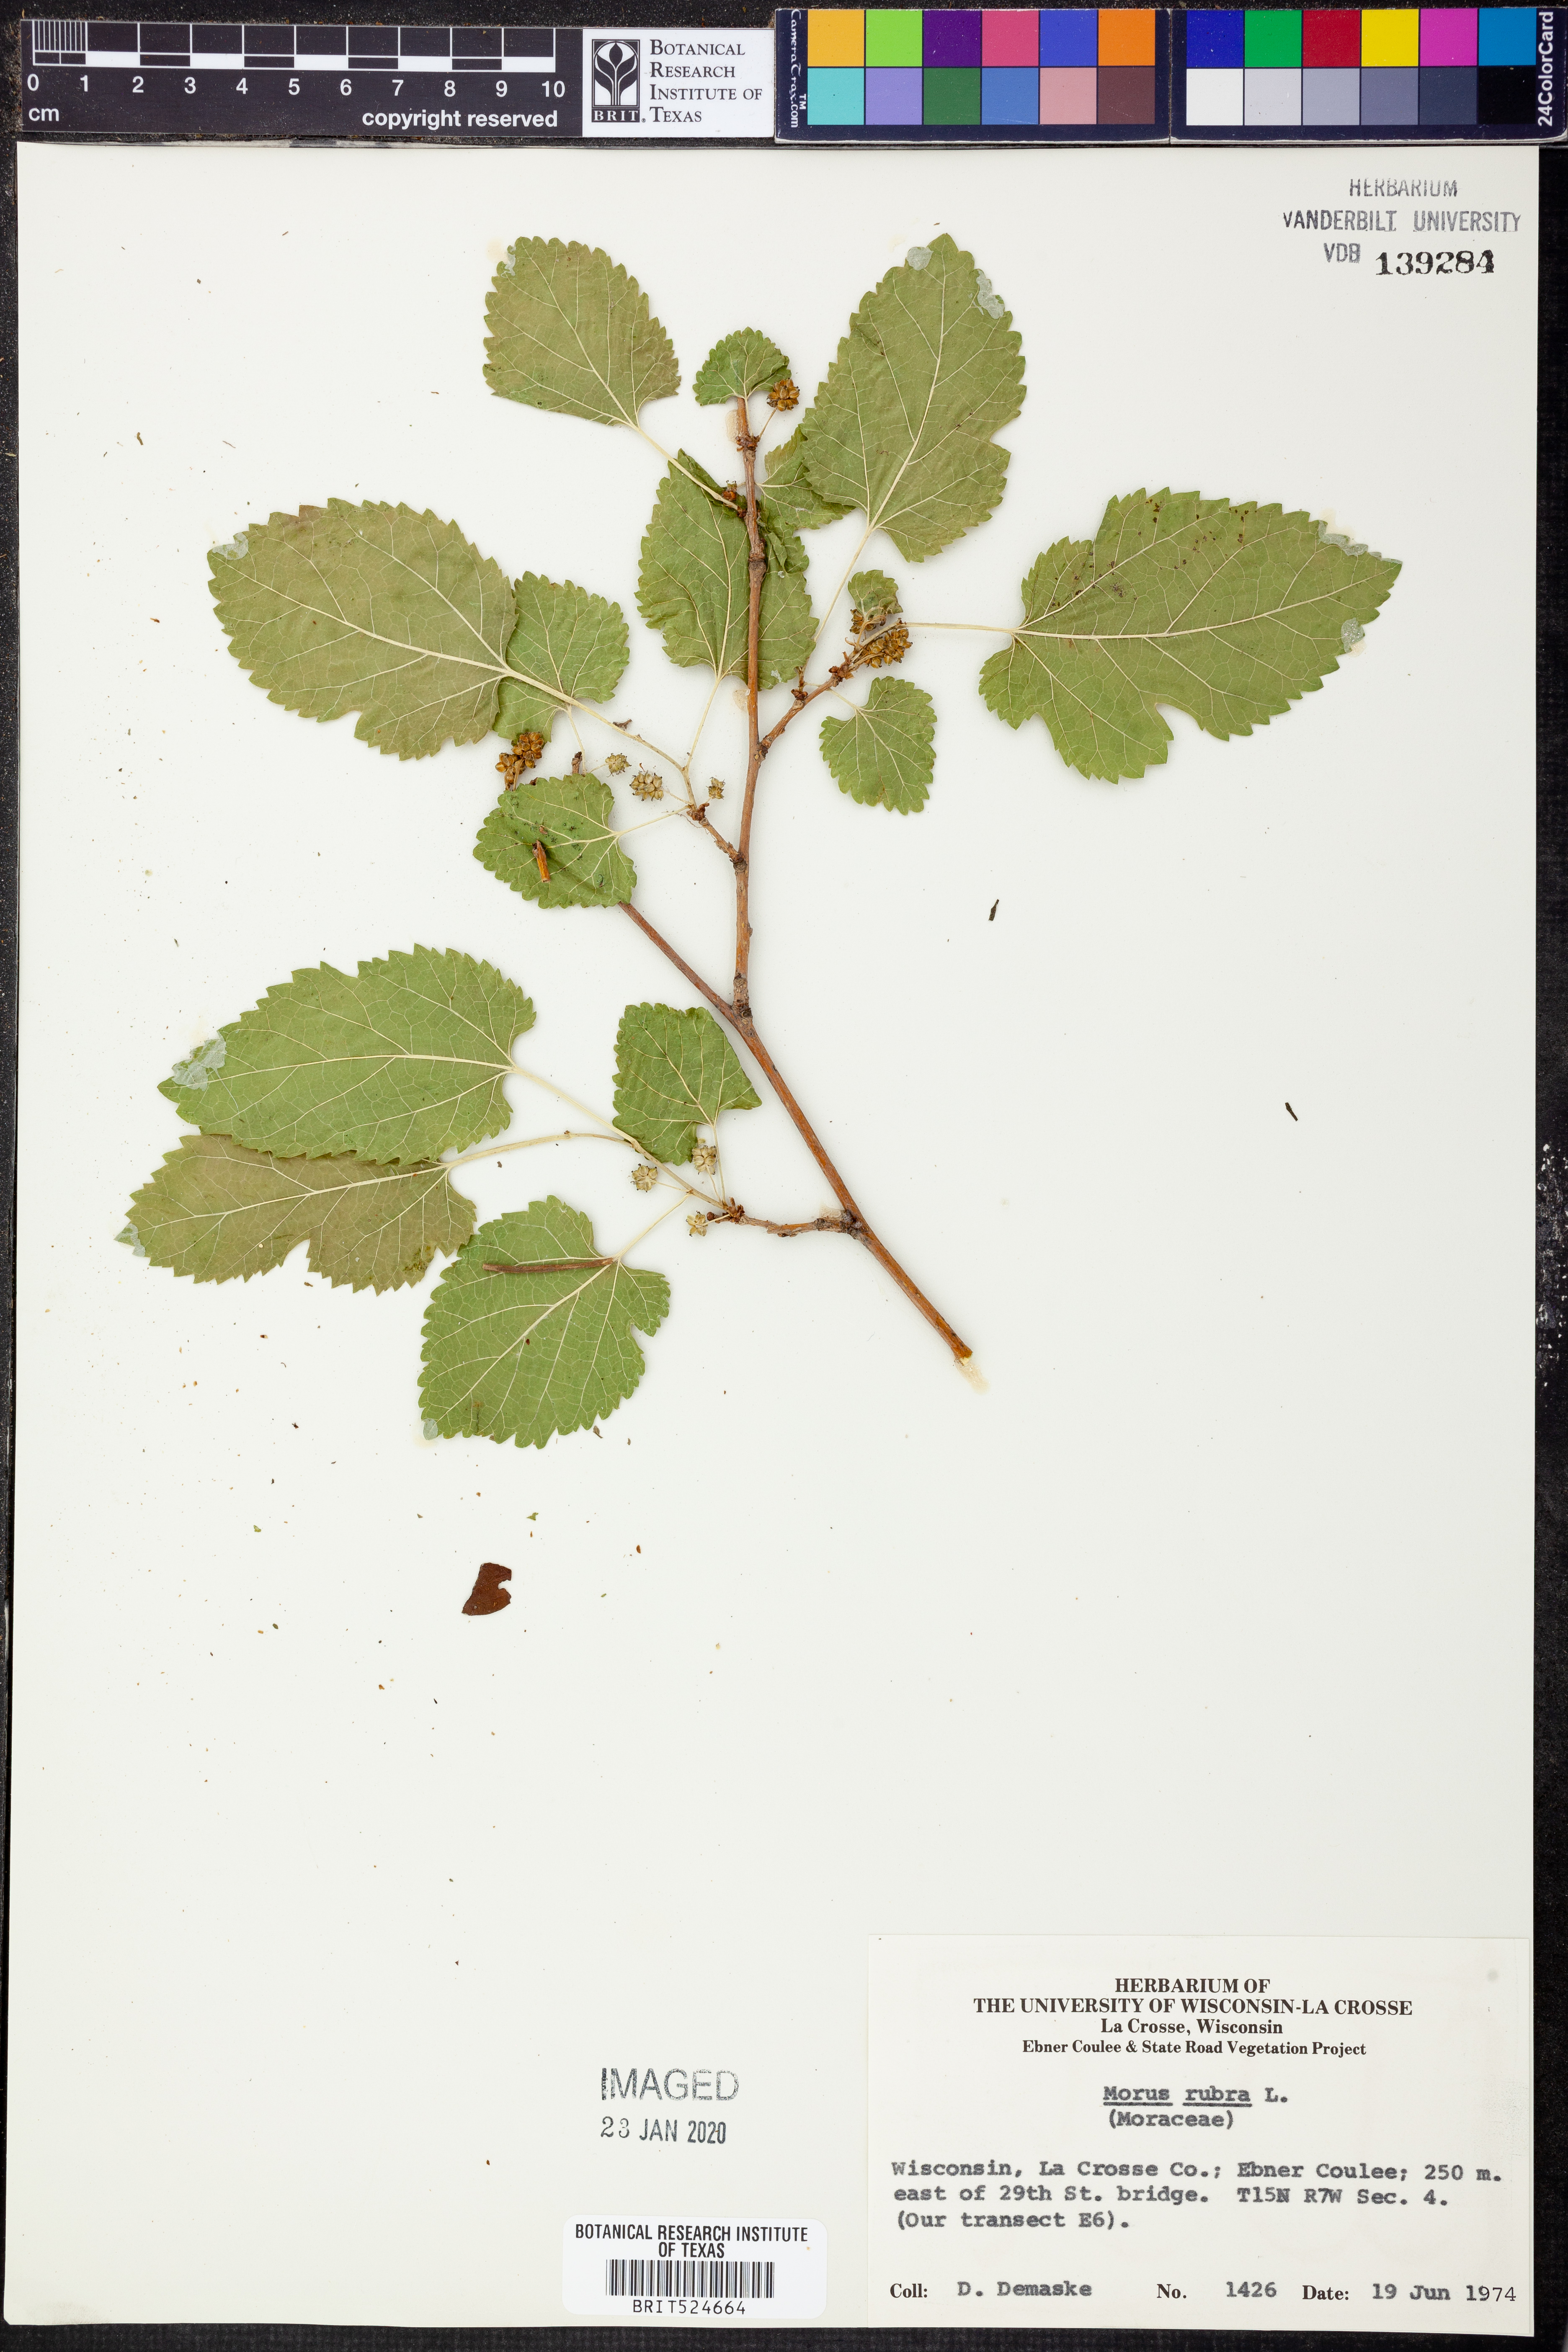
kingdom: Plantae
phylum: Tracheophyta
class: Magnoliopsida
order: Rosales
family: Moraceae
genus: Morus
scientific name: Morus rubra
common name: Red mulberry
